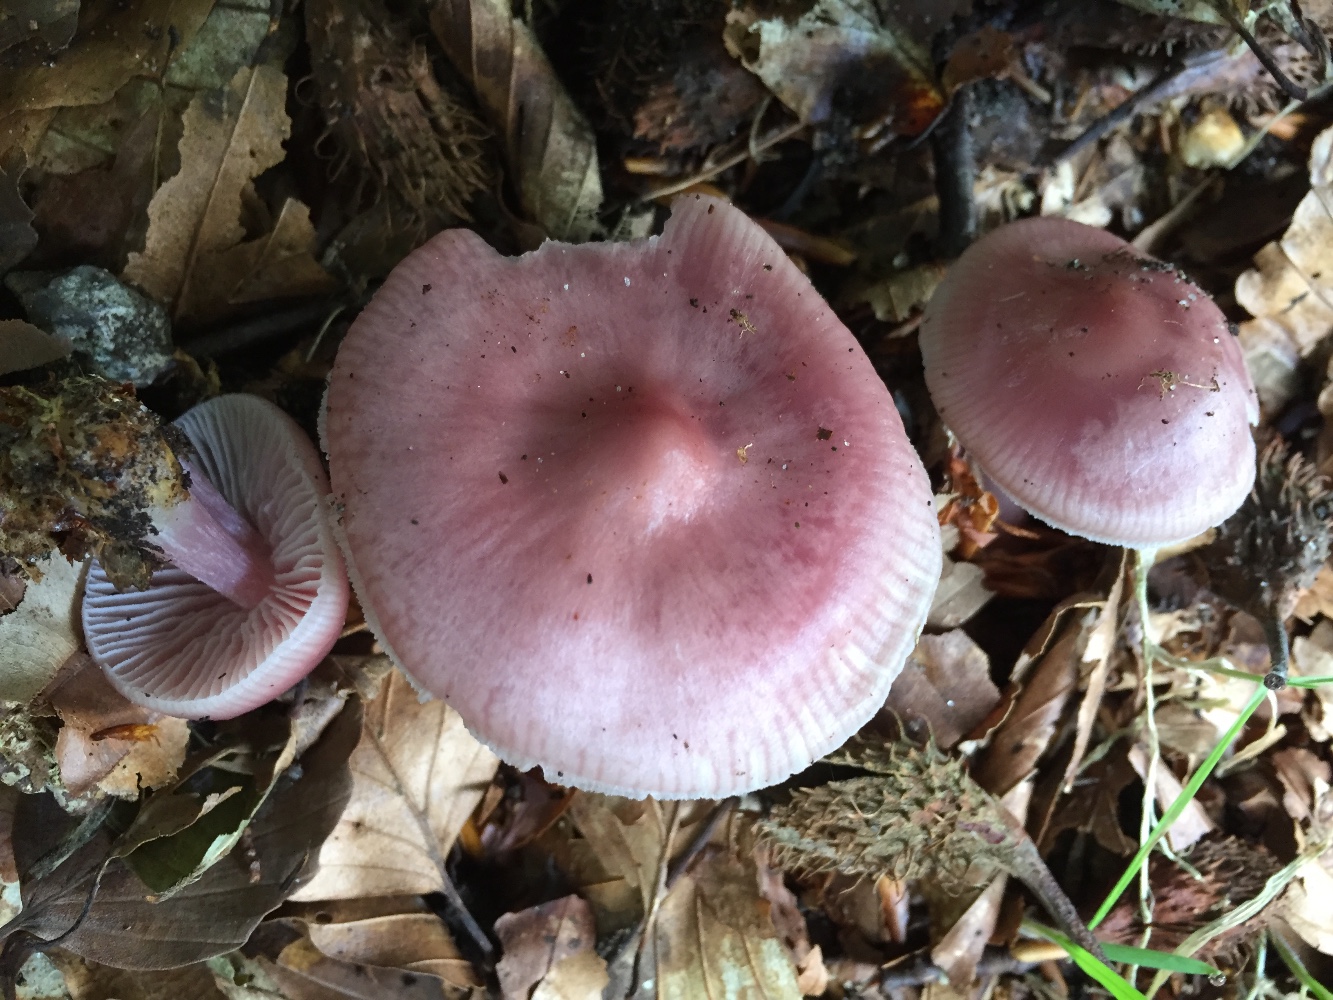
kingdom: Fungi
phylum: Basidiomycota
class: Agaricomycetes
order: Agaricales
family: Mycenaceae
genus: Mycena
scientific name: Mycena rosea
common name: rosa huesvamp
